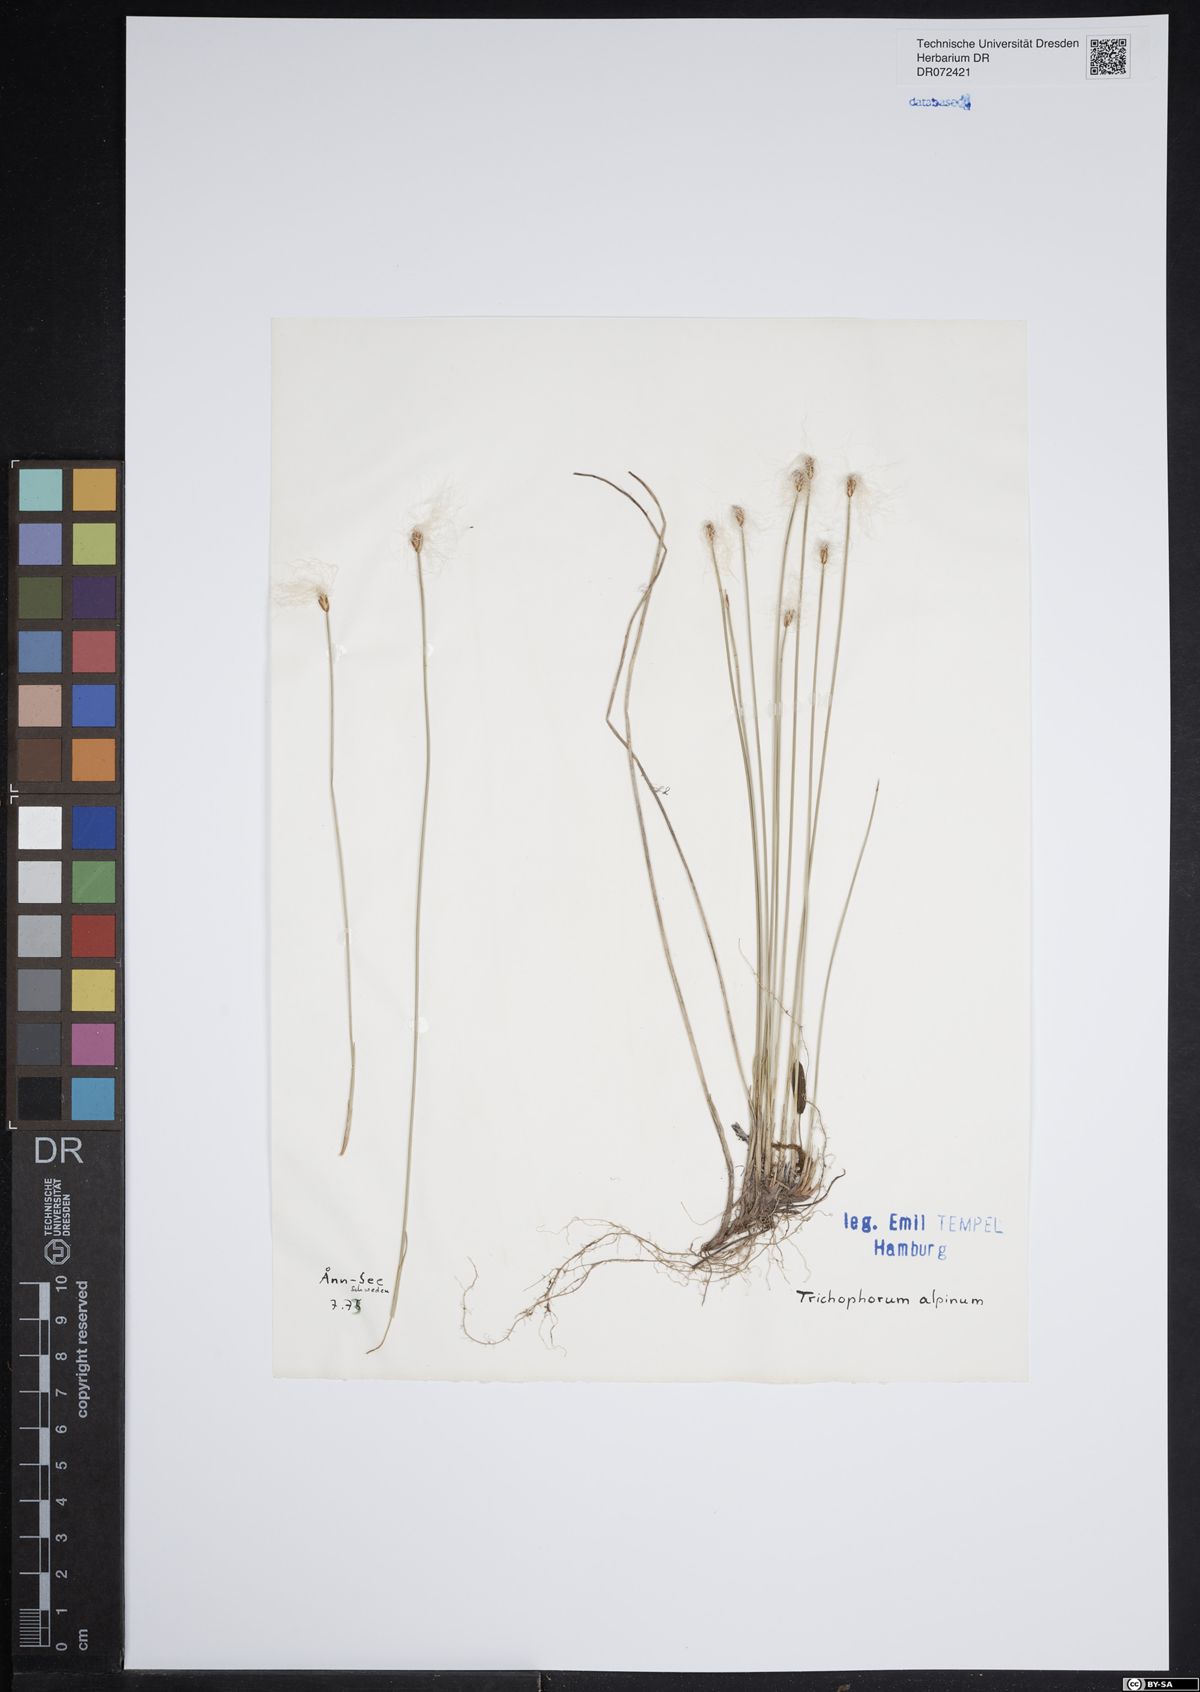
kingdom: Plantae
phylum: Tracheophyta
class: Liliopsida
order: Poales
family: Cyperaceae
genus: Trichophorum
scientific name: Trichophorum alpinum
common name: Alpine bulrush
